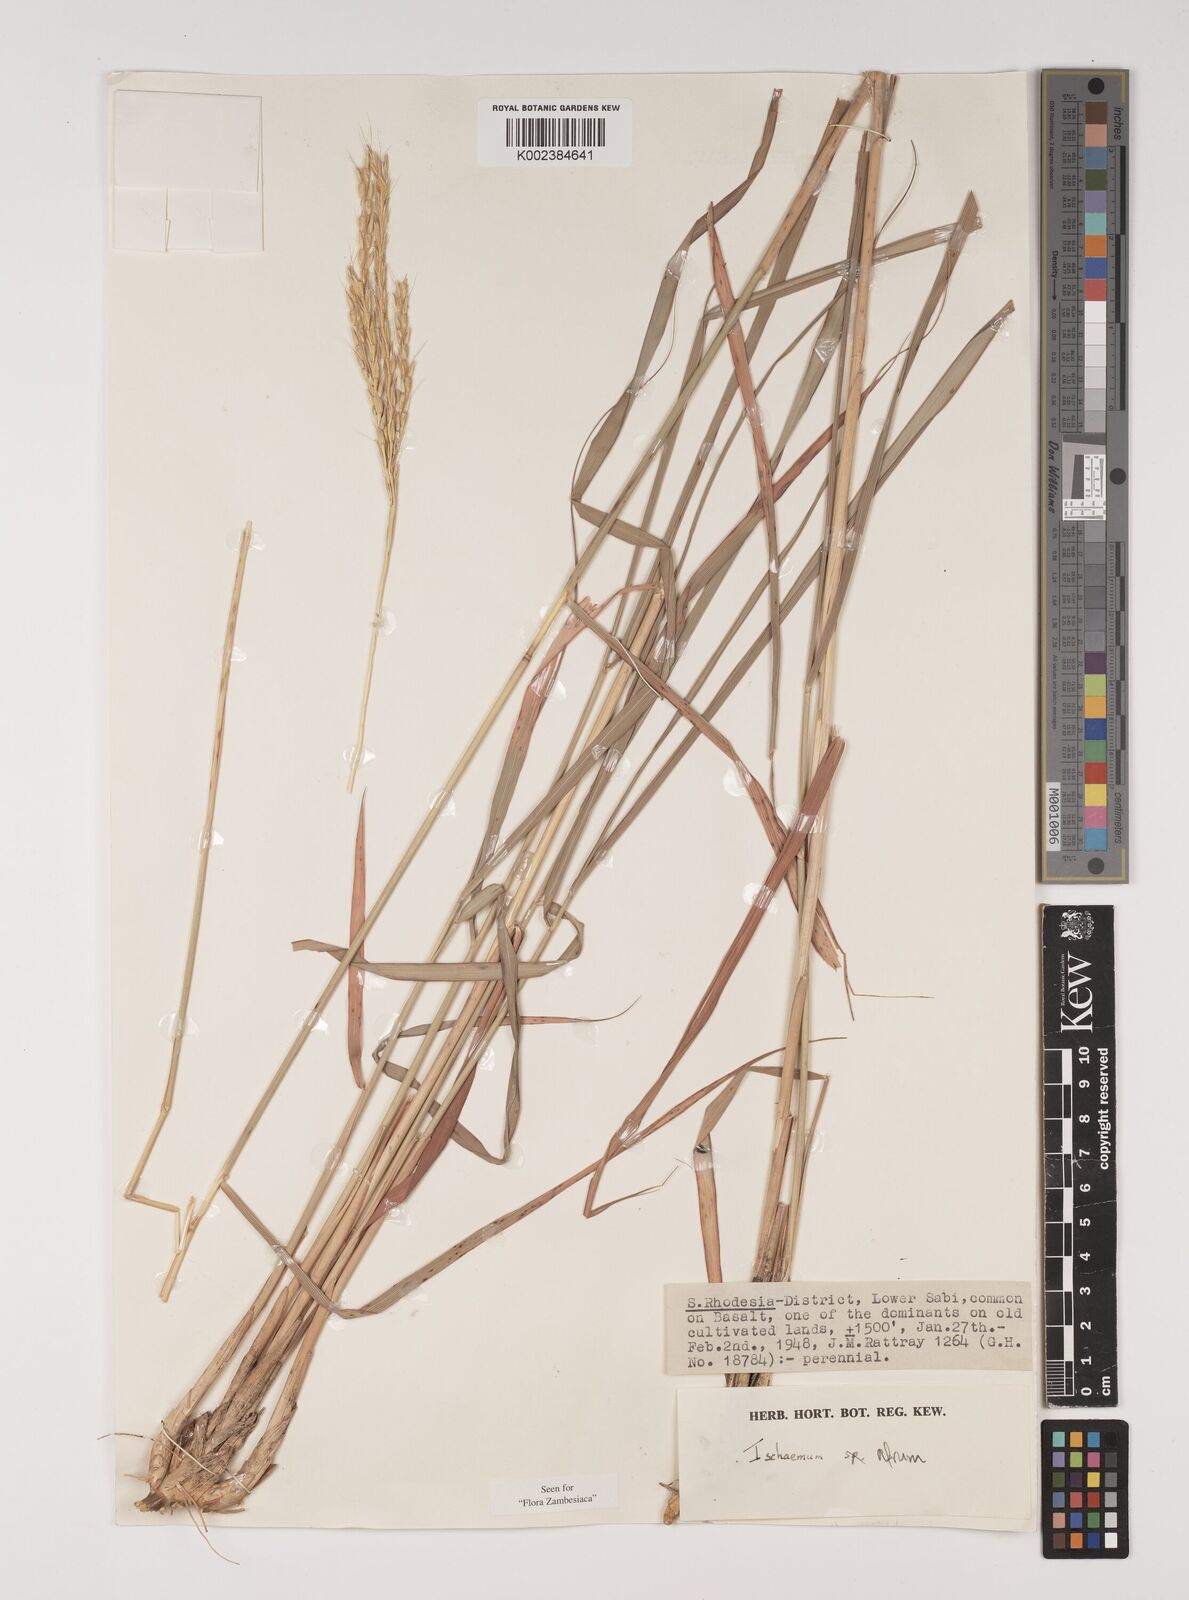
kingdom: Plantae
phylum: Tracheophyta
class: Liliopsida
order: Poales
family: Poaceae
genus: Ischaemum
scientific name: Ischaemum afrum
